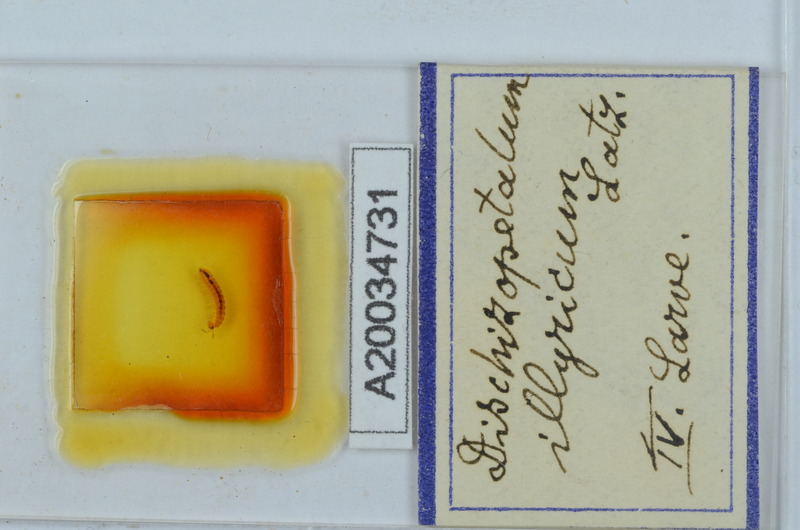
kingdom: Animalia
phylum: Arthropoda
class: Diplopoda
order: Callipodida
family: Schizopetalidae
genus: Dischizopetalum
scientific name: Dischizopetalum illyricum
